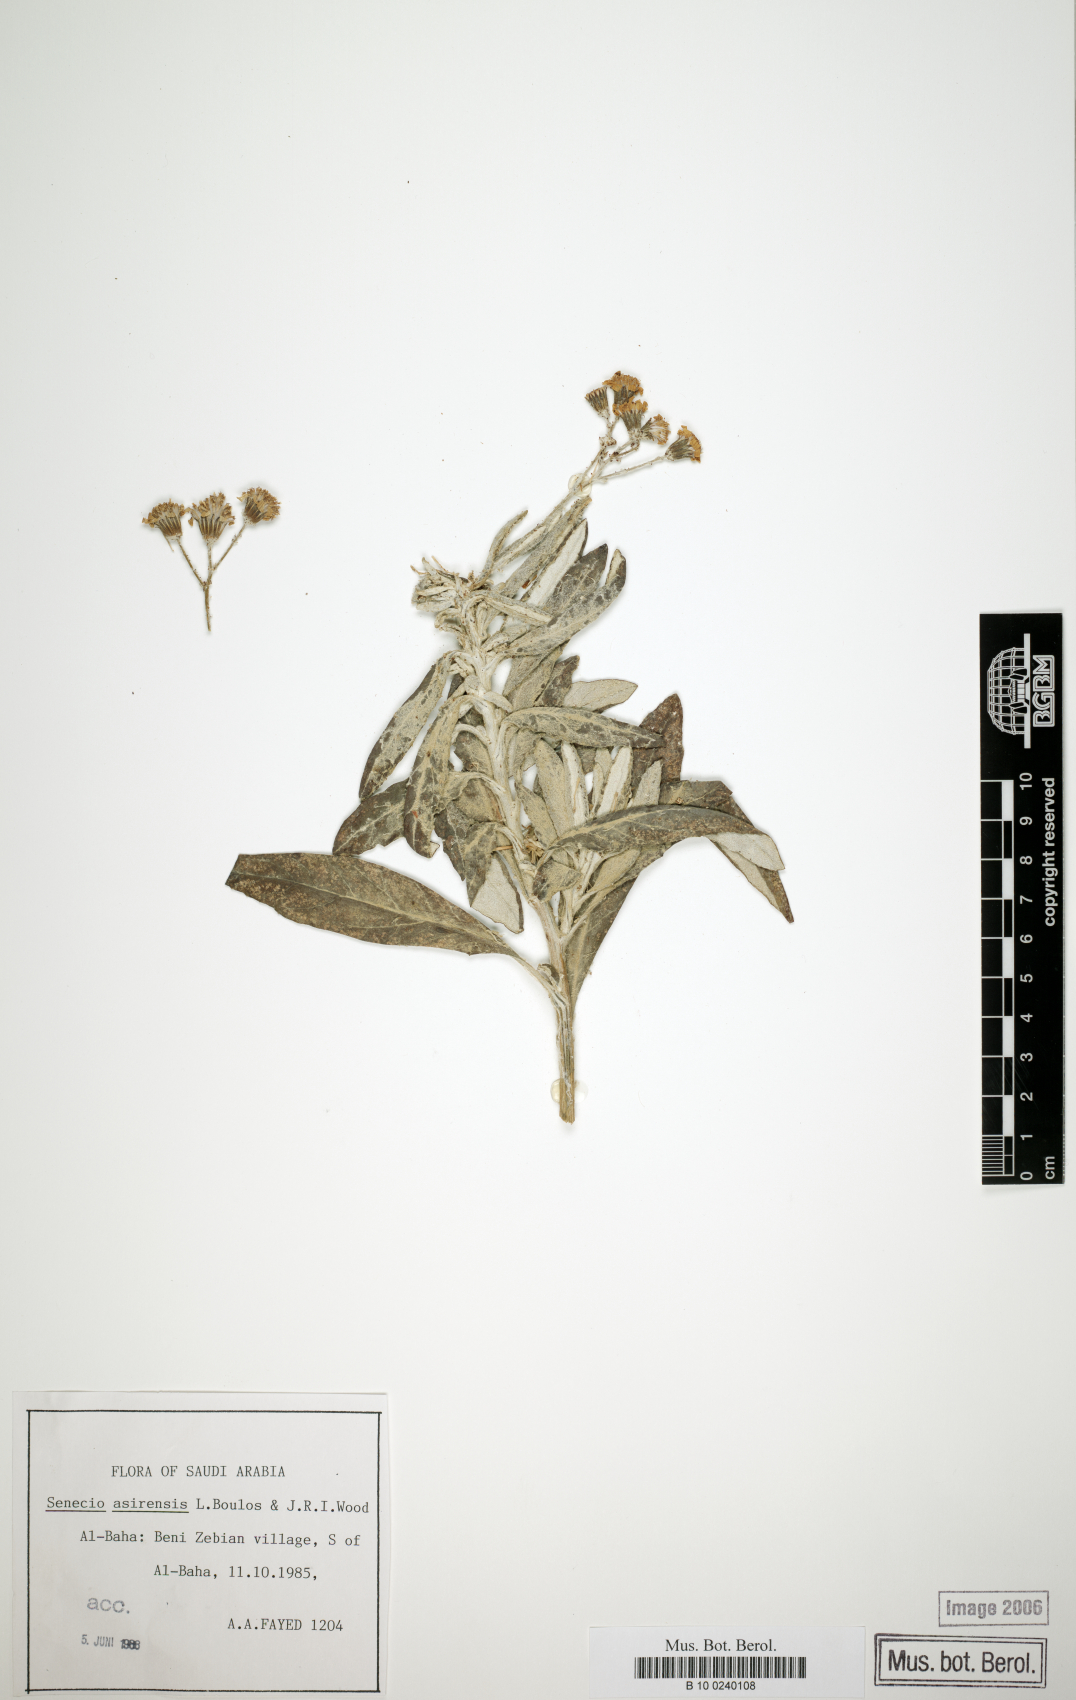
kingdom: Plantae
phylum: Tracheophyta
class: Magnoliopsida
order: Asterales
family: Asteraceae
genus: Senecio
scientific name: Senecio asirensis
